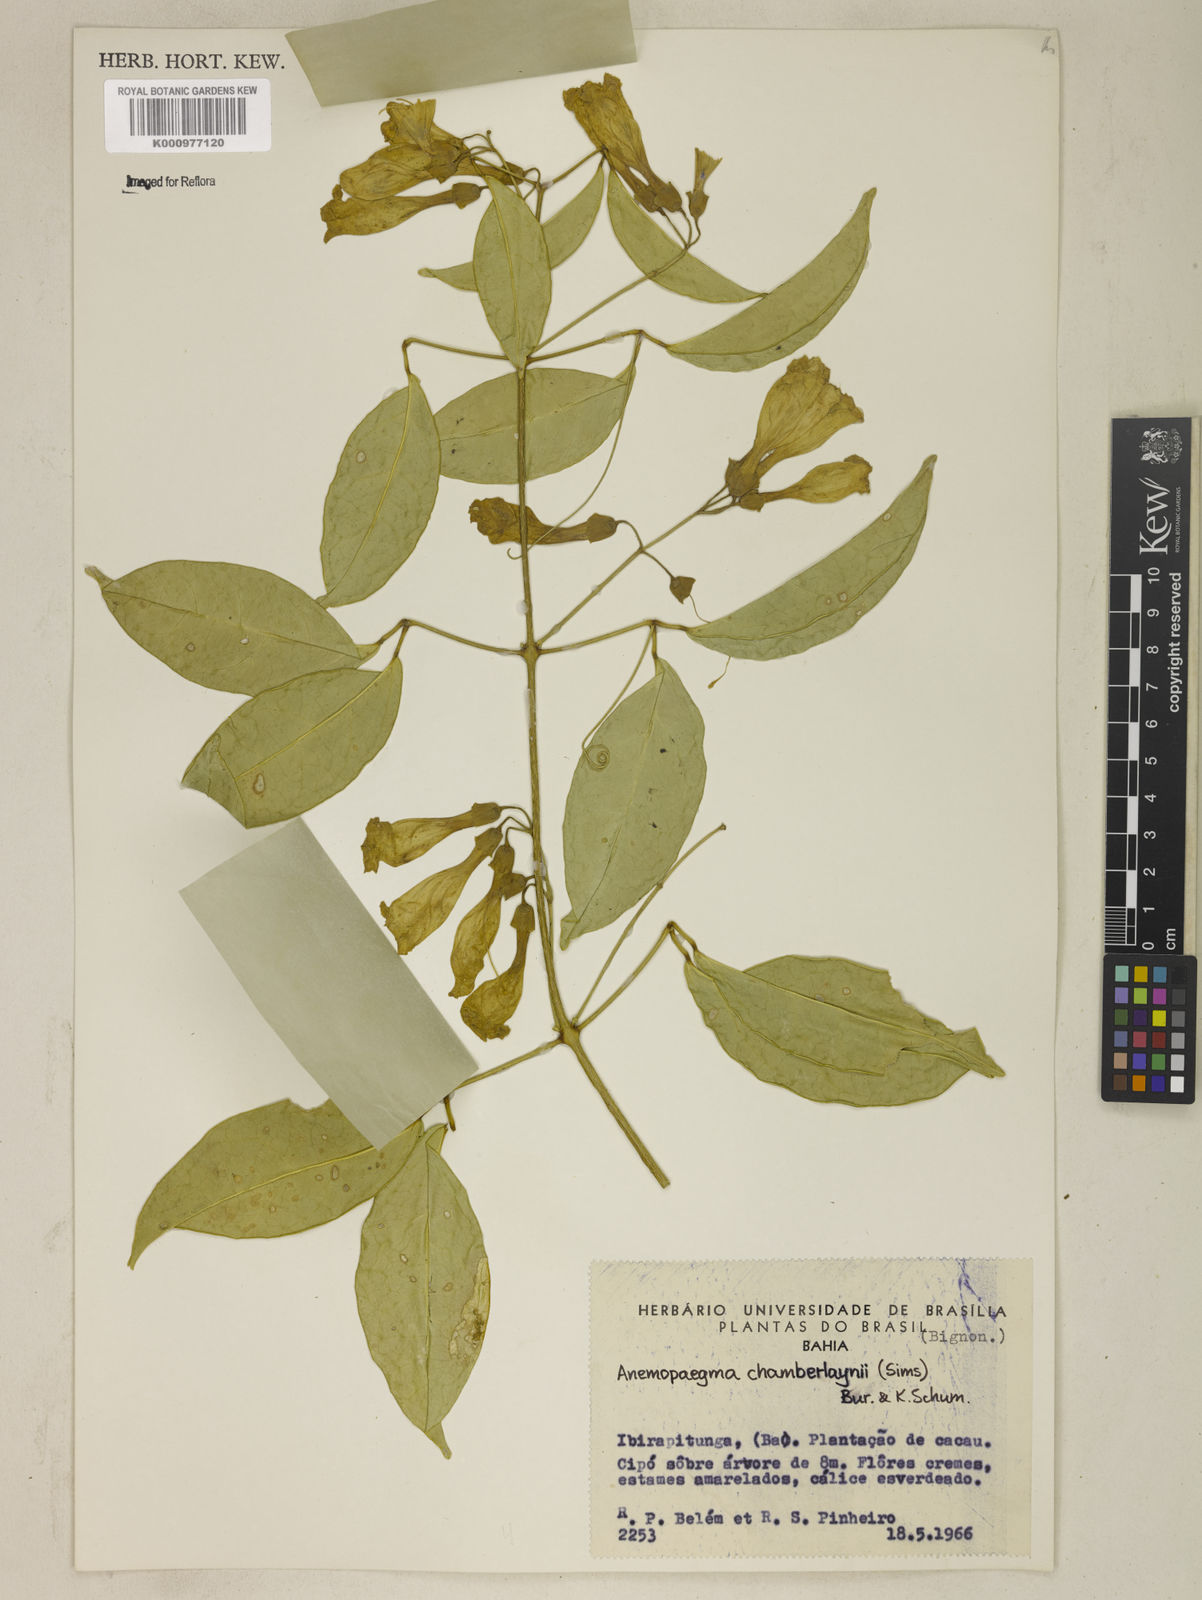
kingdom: Plantae
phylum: Tracheophyta
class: Magnoliopsida
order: Lamiales
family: Bignoniaceae
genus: Anemopaegma
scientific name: Anemopaegma chamberlaynii
